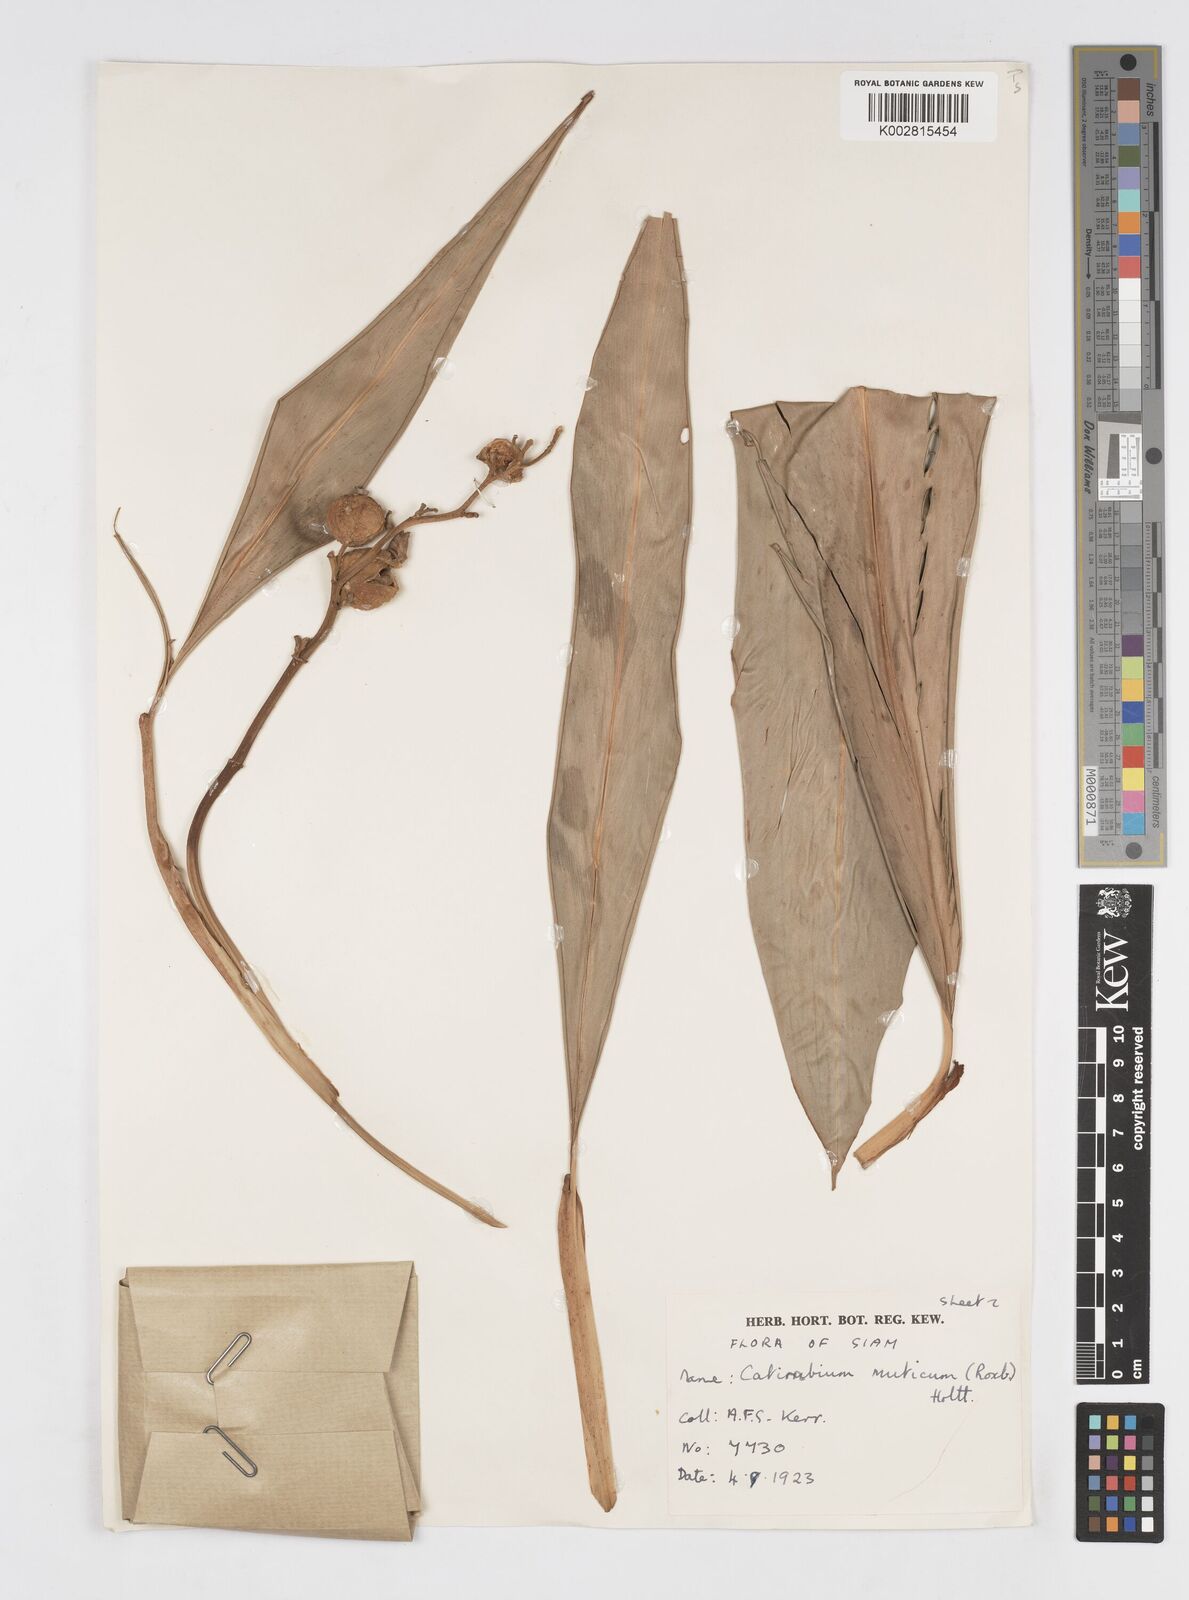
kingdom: Plantae
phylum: Tracheophyta
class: Liliopsida
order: Zingiberales
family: Zingiberaceae
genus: Alpinia
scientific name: Alpinia mutica
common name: Small shell ginger
